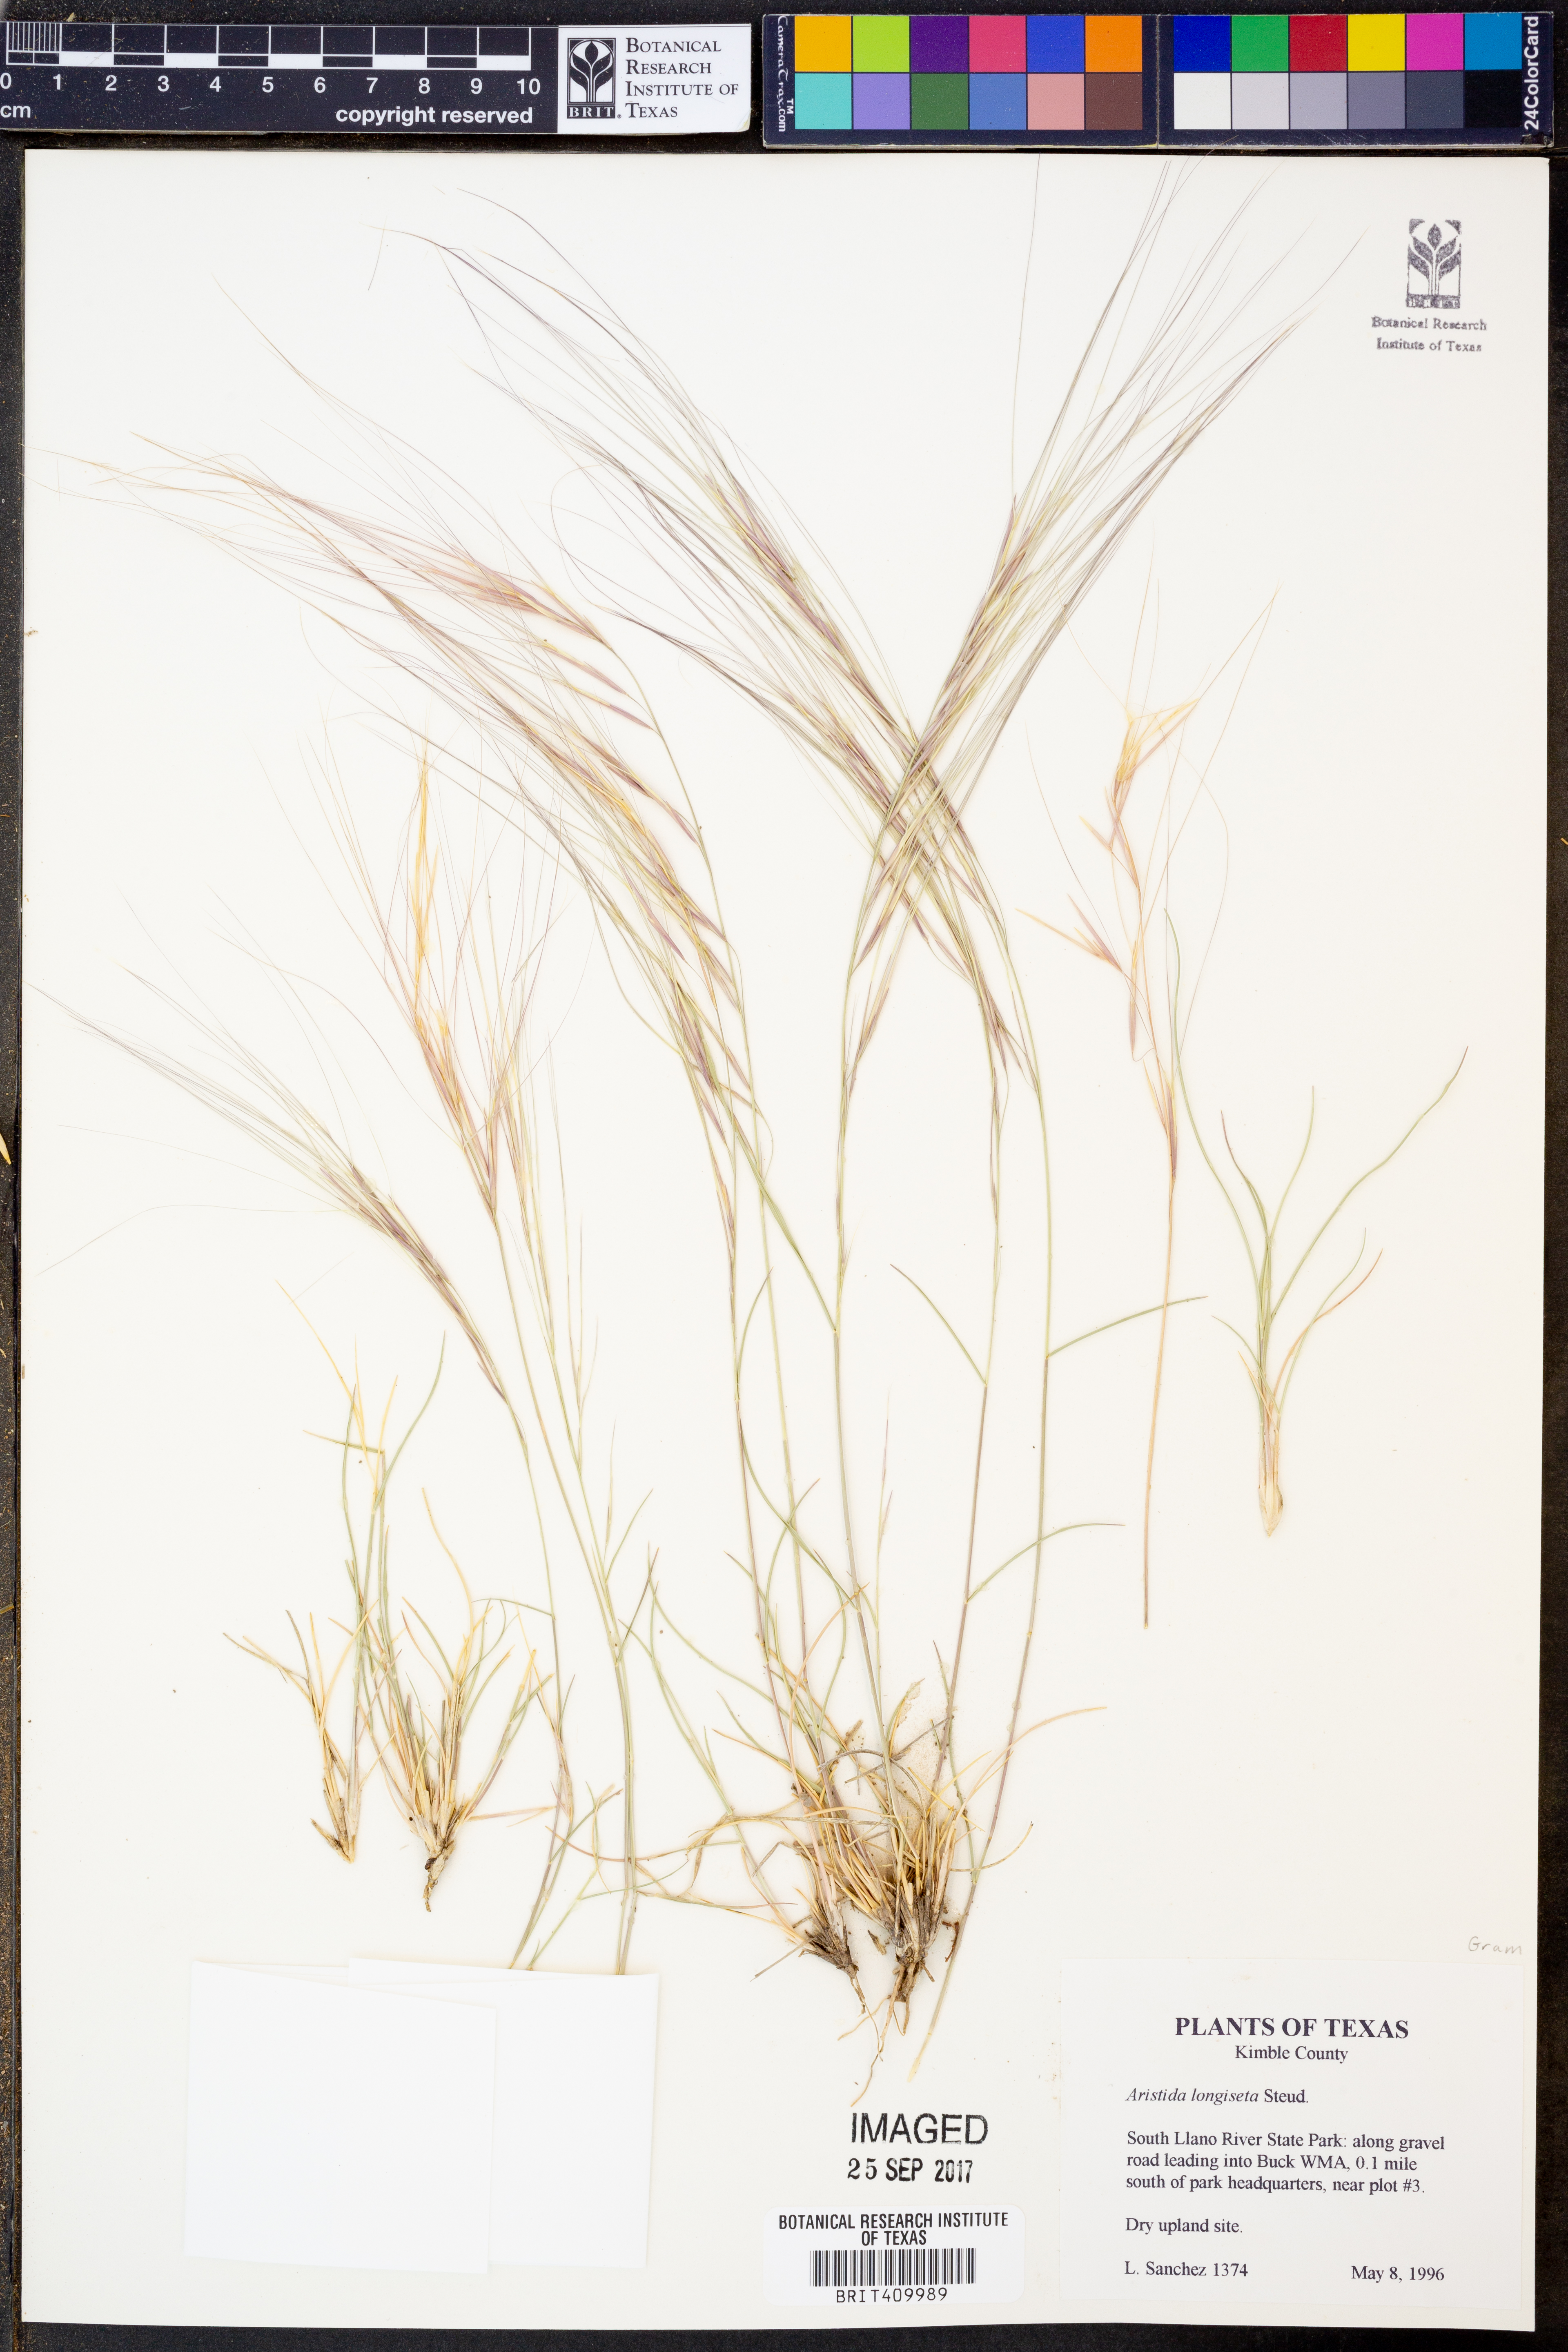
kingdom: Plantae
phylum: Tracheophyta
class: Liliopsida
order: Poales
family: Poaceae
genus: Aristida
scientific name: Aristida longiseta
